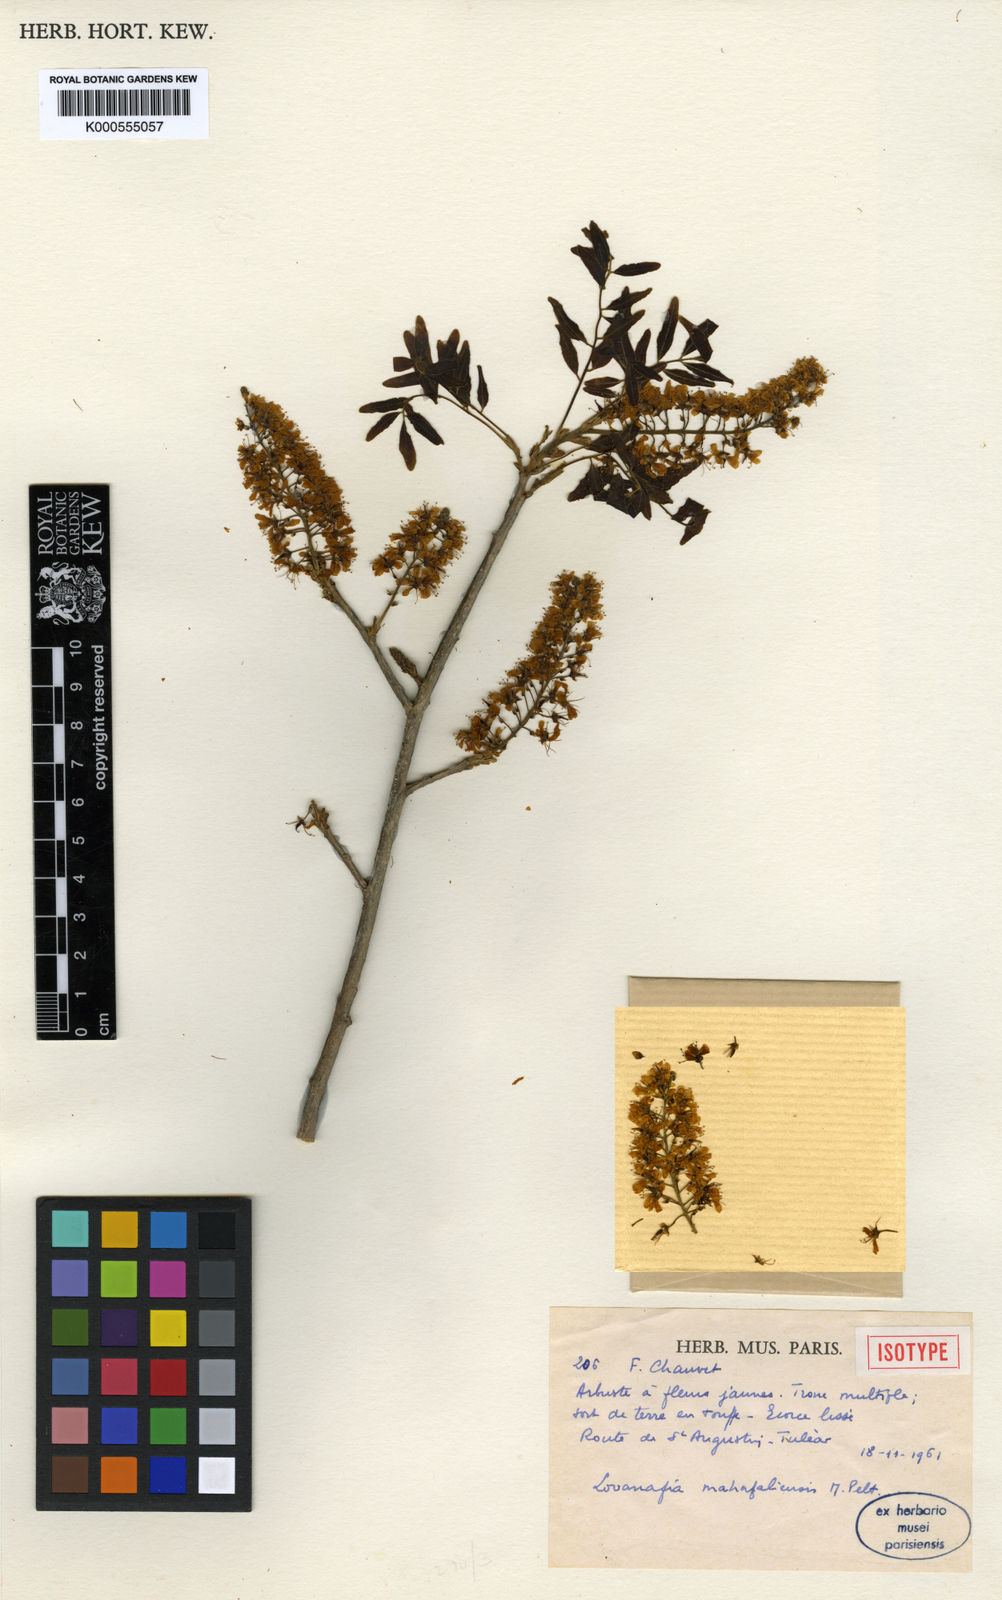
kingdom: Plantae
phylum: Tracheophyta
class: Magnoliopsida
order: Fabales
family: Fabaceae
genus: Dicraeopetalum
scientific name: Dicraeopetalum mahafaliense
